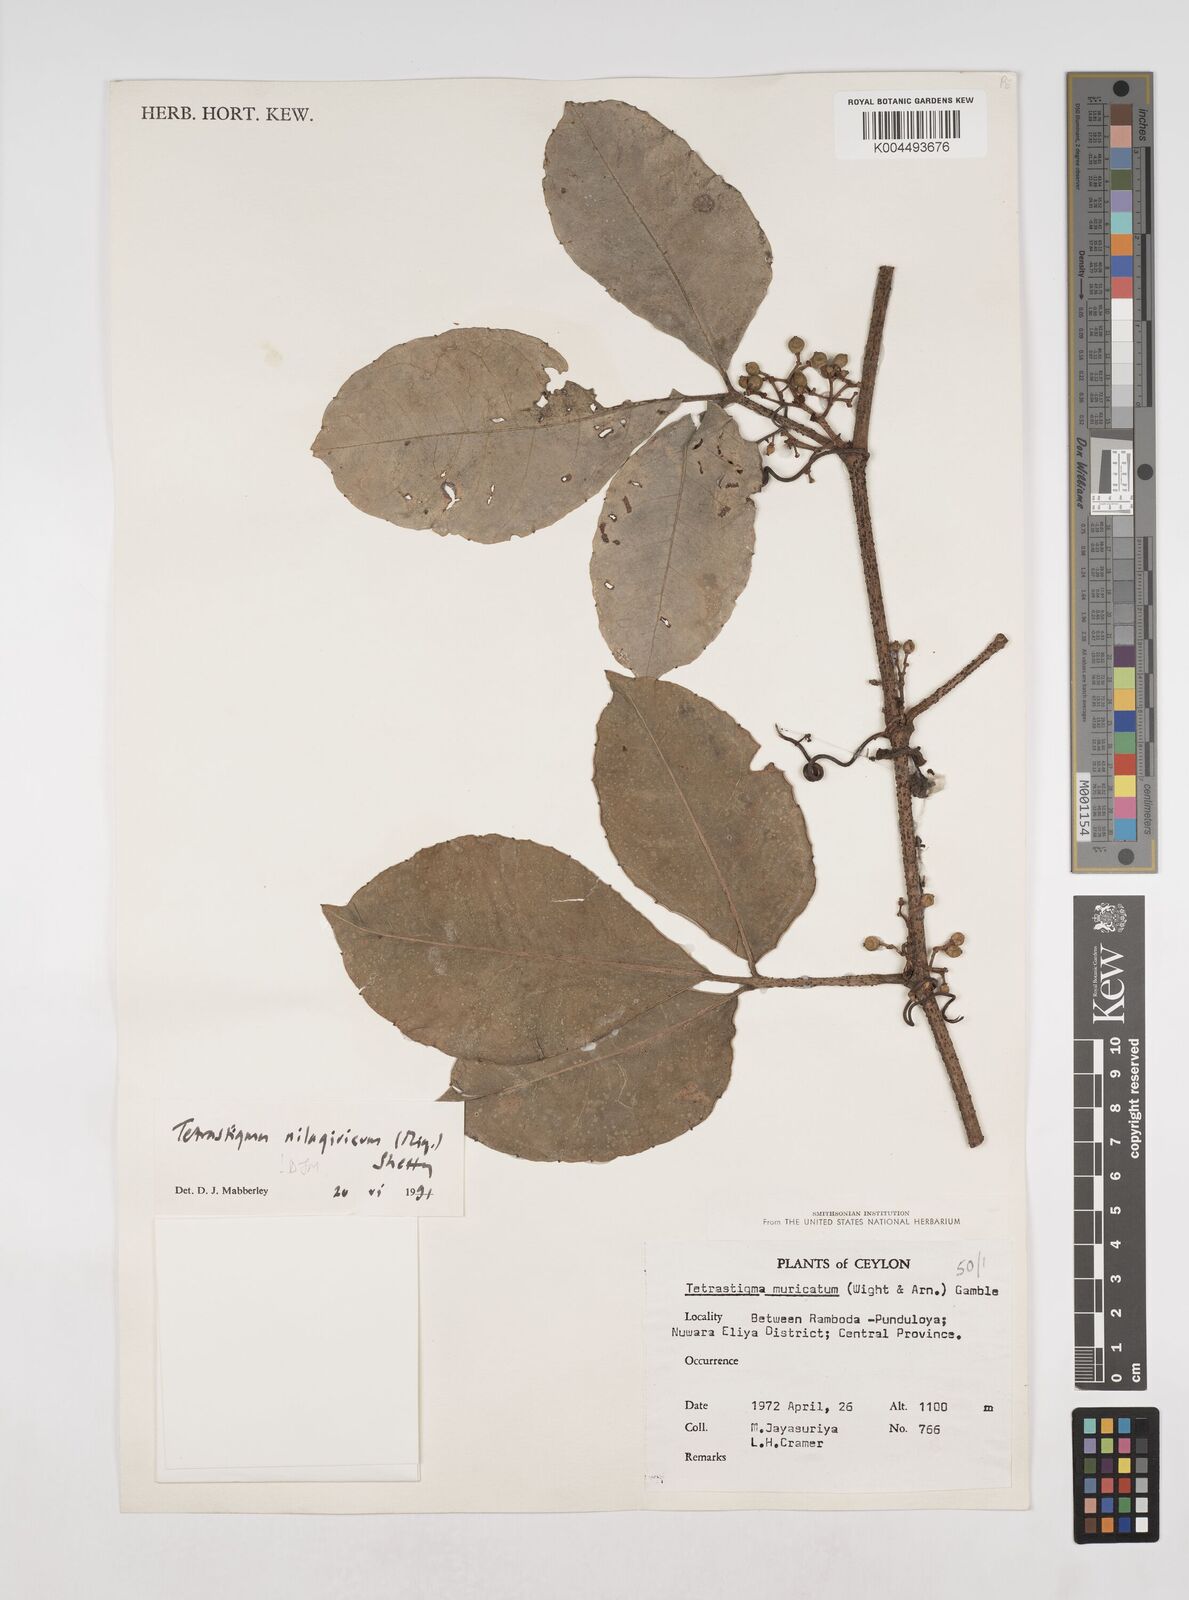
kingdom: Plantae
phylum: Tracheophyta
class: Magnoliopsida
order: Vitales
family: Vitaceae
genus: Tetrastigma
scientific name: Tetrastigma leucostaphylum
